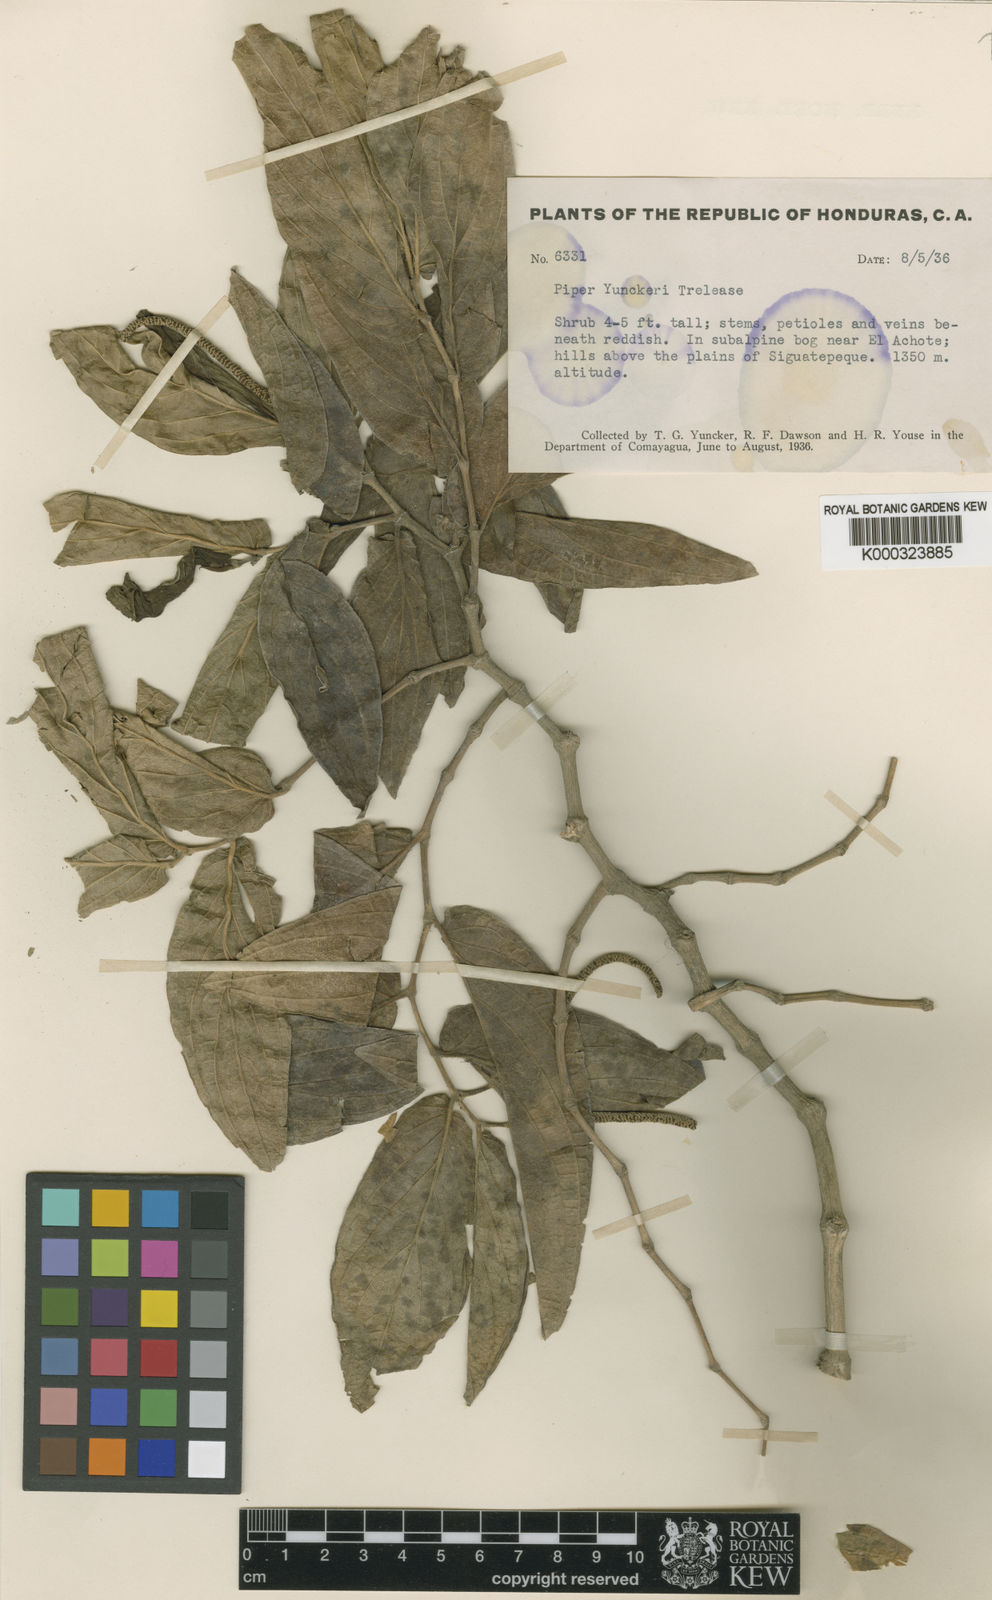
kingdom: Plantae
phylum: Tracheophyta
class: Magnoliopsida
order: Piperales
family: Piperaceae
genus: Piper
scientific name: Piper achoteanum
